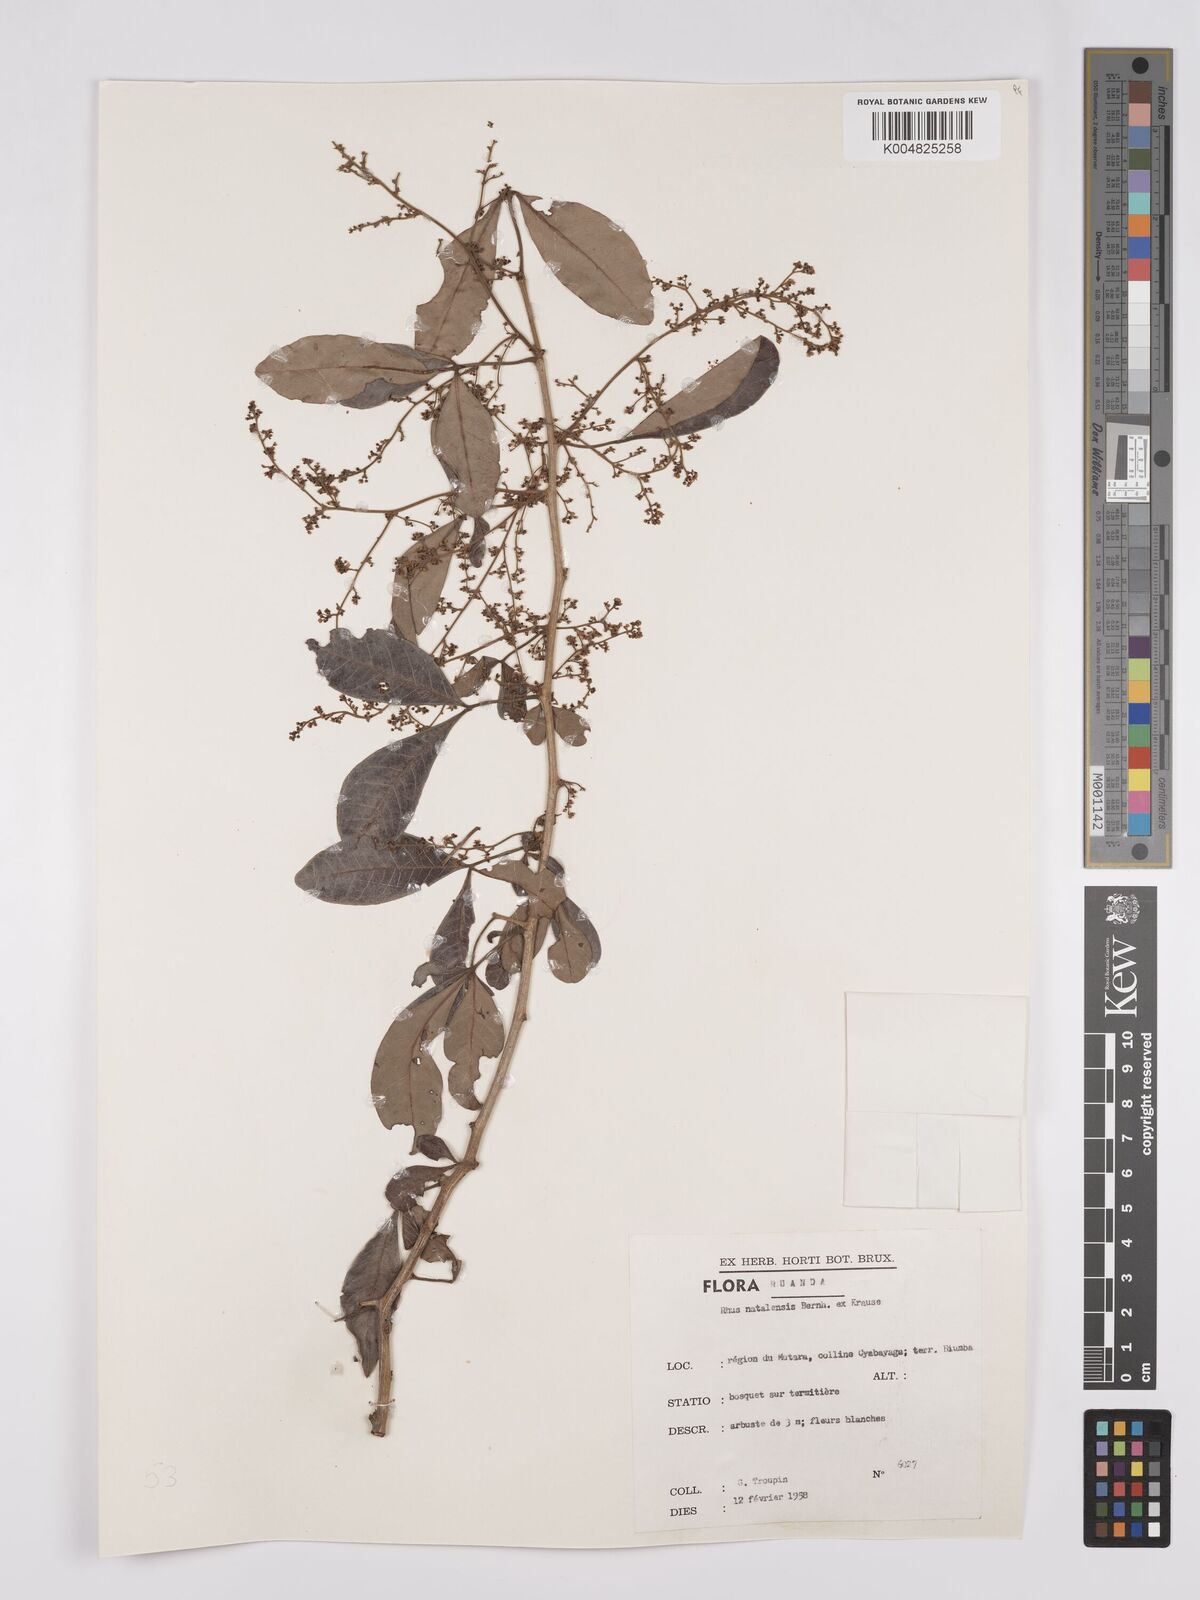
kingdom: Plantae
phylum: Tracheophyta
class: Magnoliopsida
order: Sapindales
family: Anacardiaceae
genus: Searsia
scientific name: Searsia natalensis
